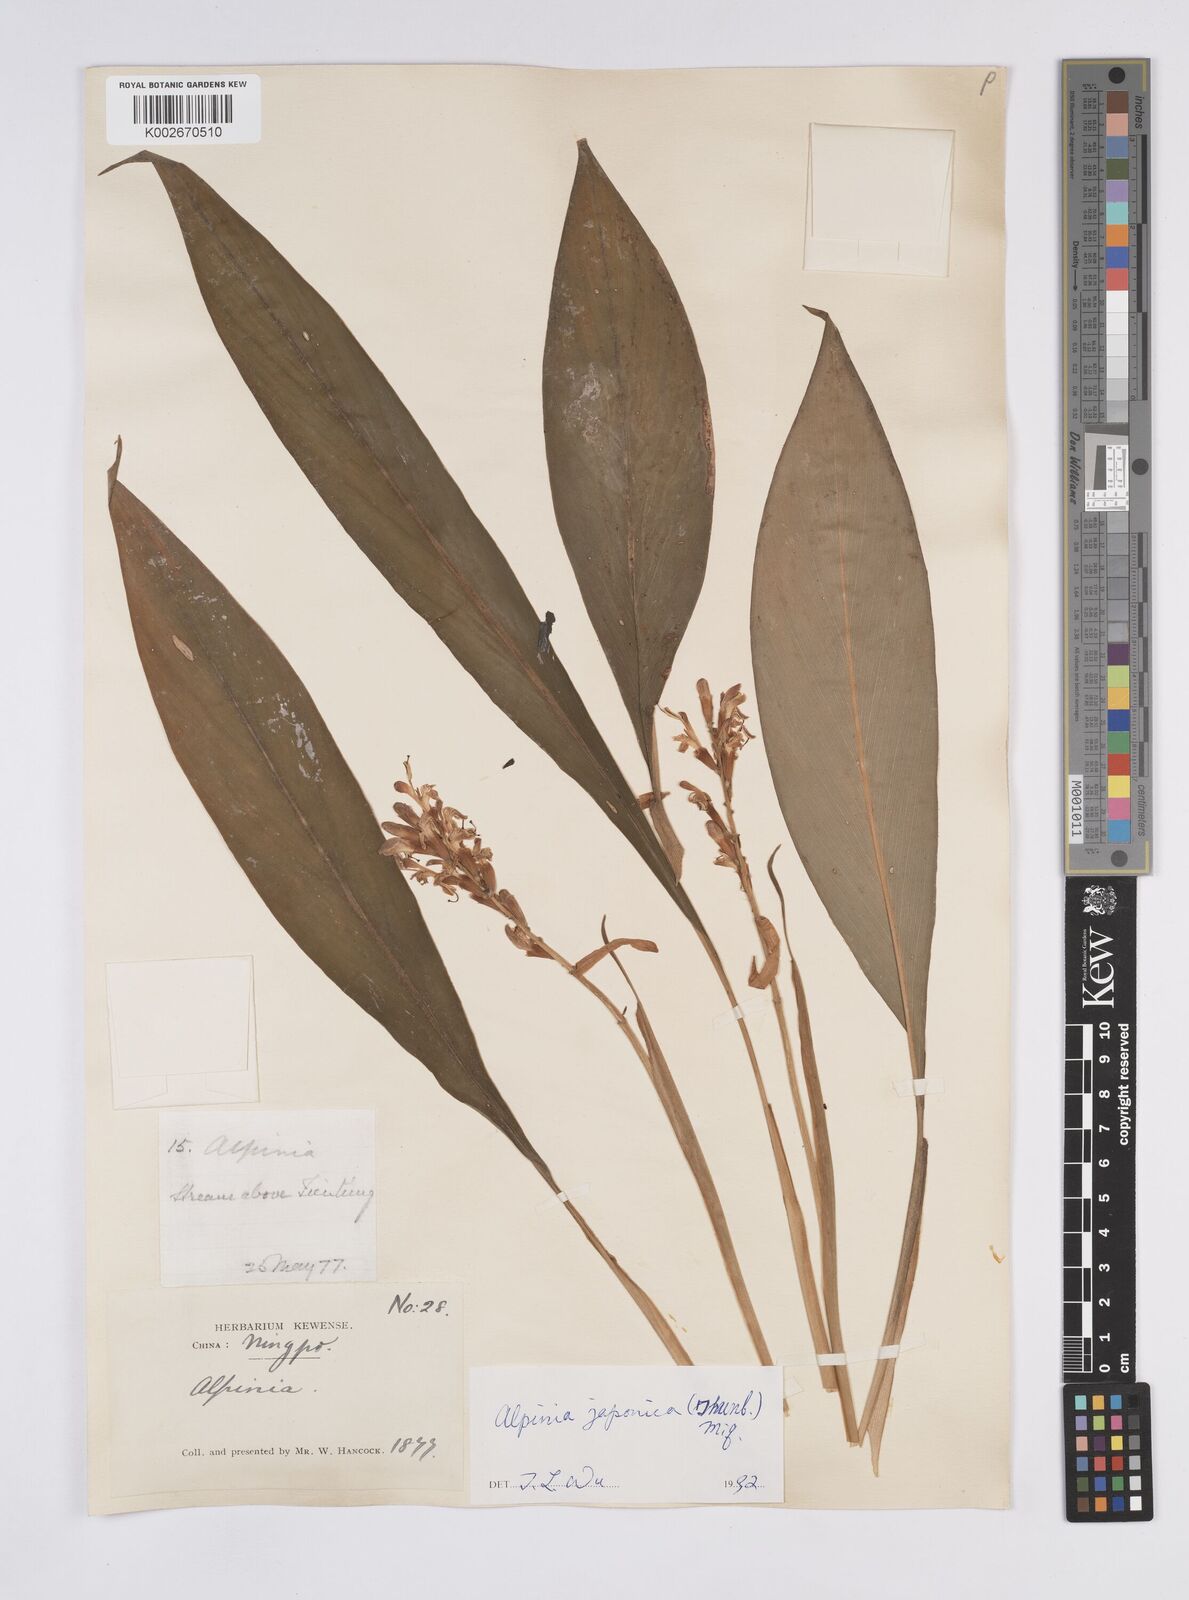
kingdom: Plantae
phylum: Tracheophyta
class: Liliopsida
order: Zingiberales
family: Zingiberaceae
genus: Alpinia
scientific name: Alpinia japonica
